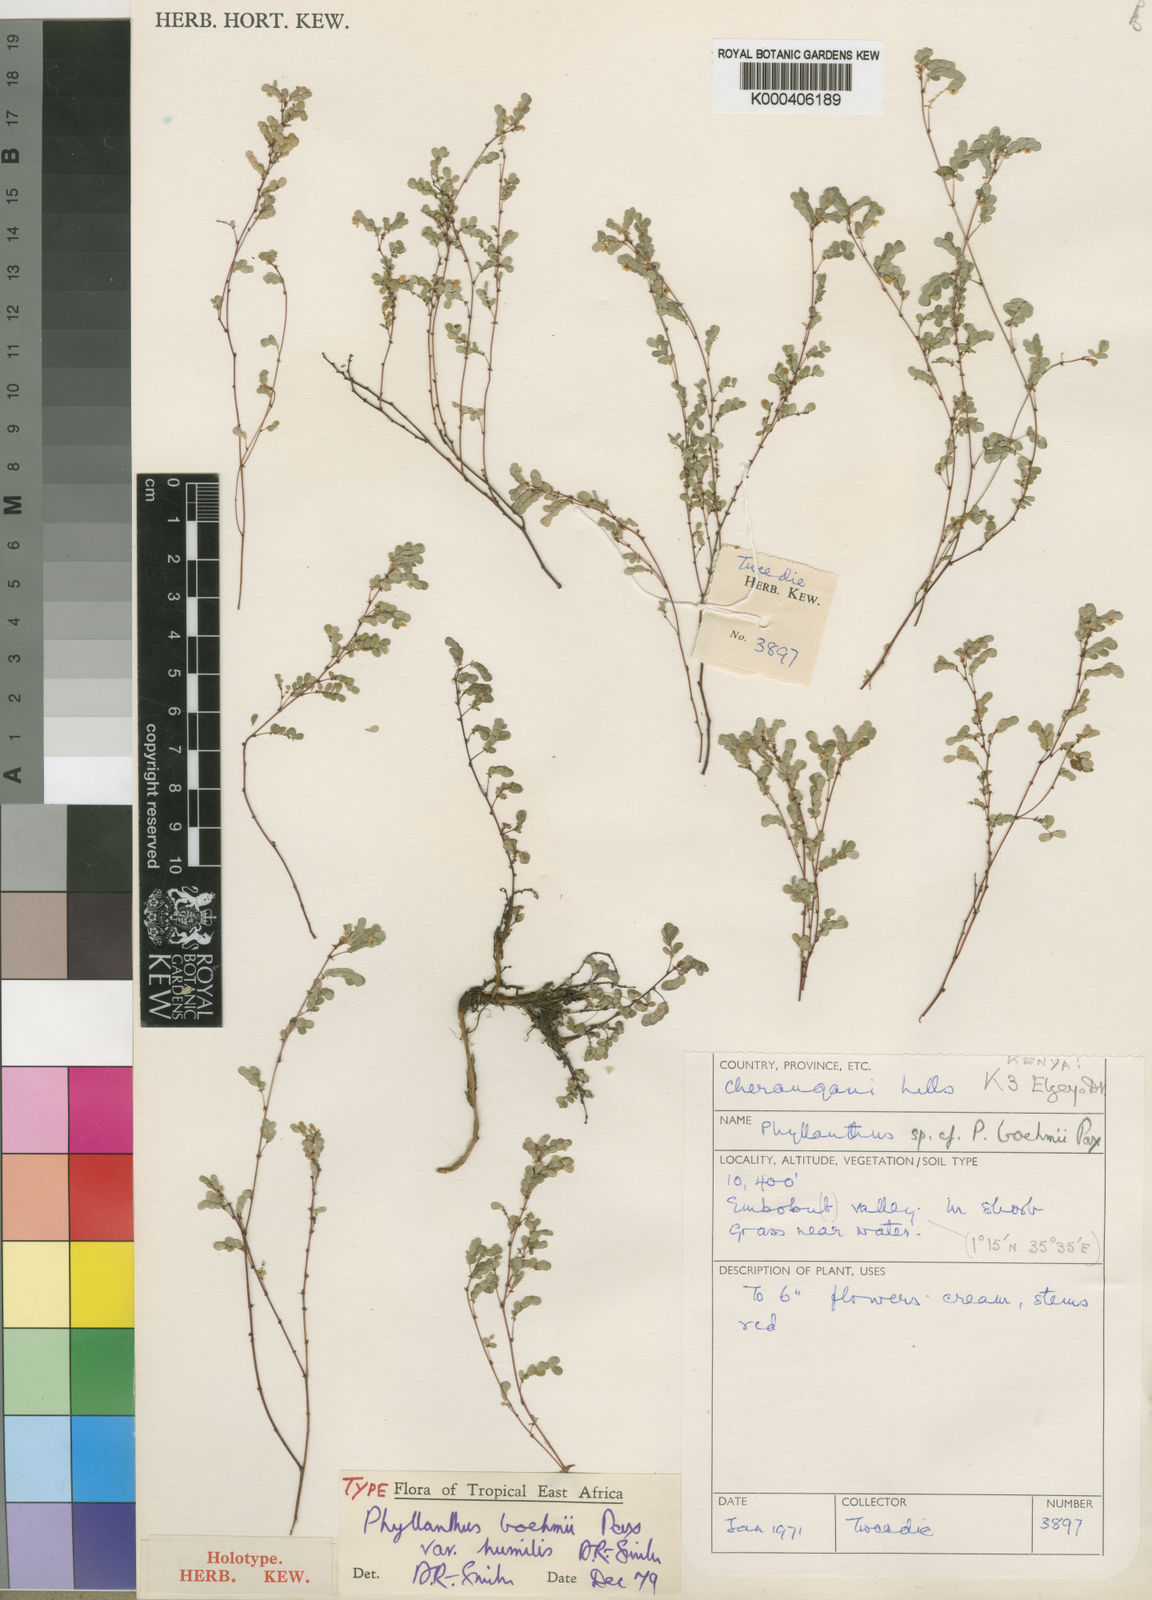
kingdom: Plantae
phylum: Tracheophyta
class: Magnoliopsida
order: Malpighiales
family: Phyllanthaceae
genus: Phyllanthus
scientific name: Phyllanthus boehmii
